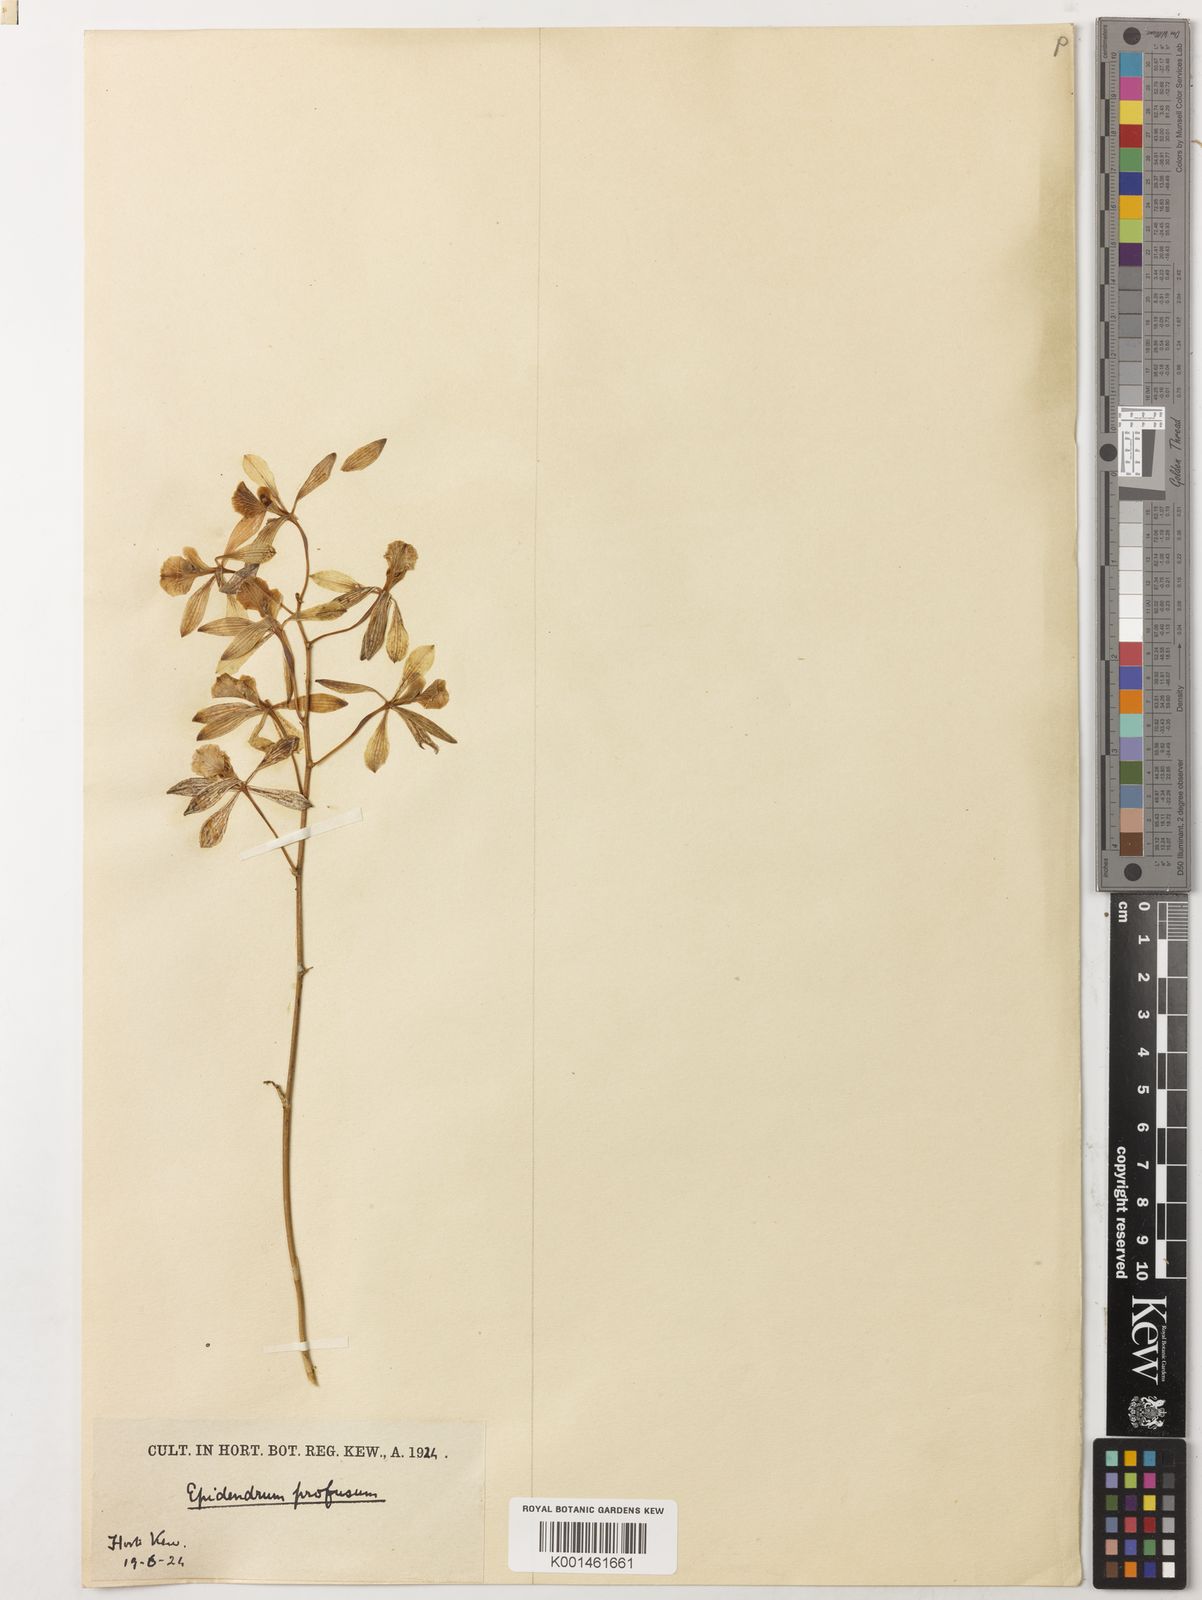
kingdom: Plantae
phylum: Tracheophyta
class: Liliopsida
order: Asparagales
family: Orchidaceae
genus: Encyclia
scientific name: Encyclia profusa
